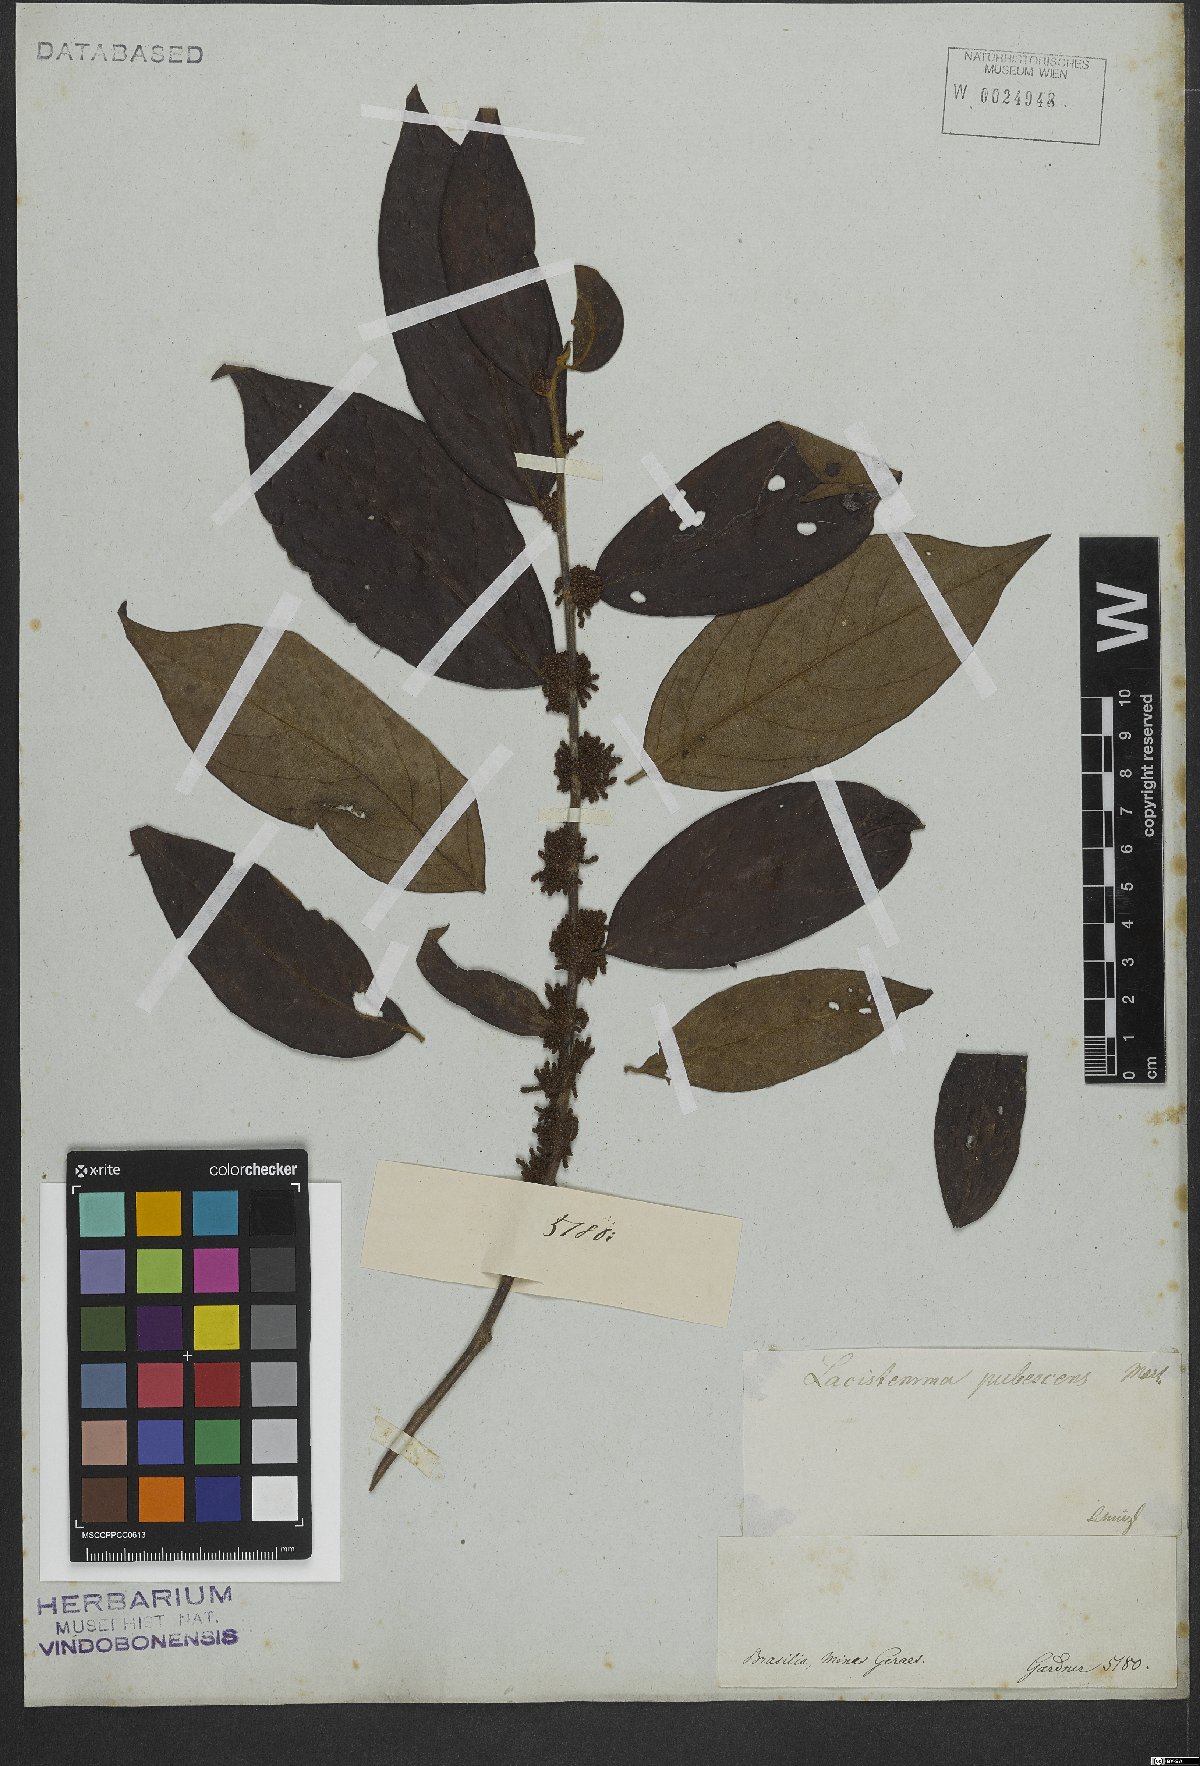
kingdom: Plantae
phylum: Tracheophyta
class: Magnoliopsida
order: Malpighiales
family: Lacistemataceae
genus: Lacistema
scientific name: Lacistema pubescens
